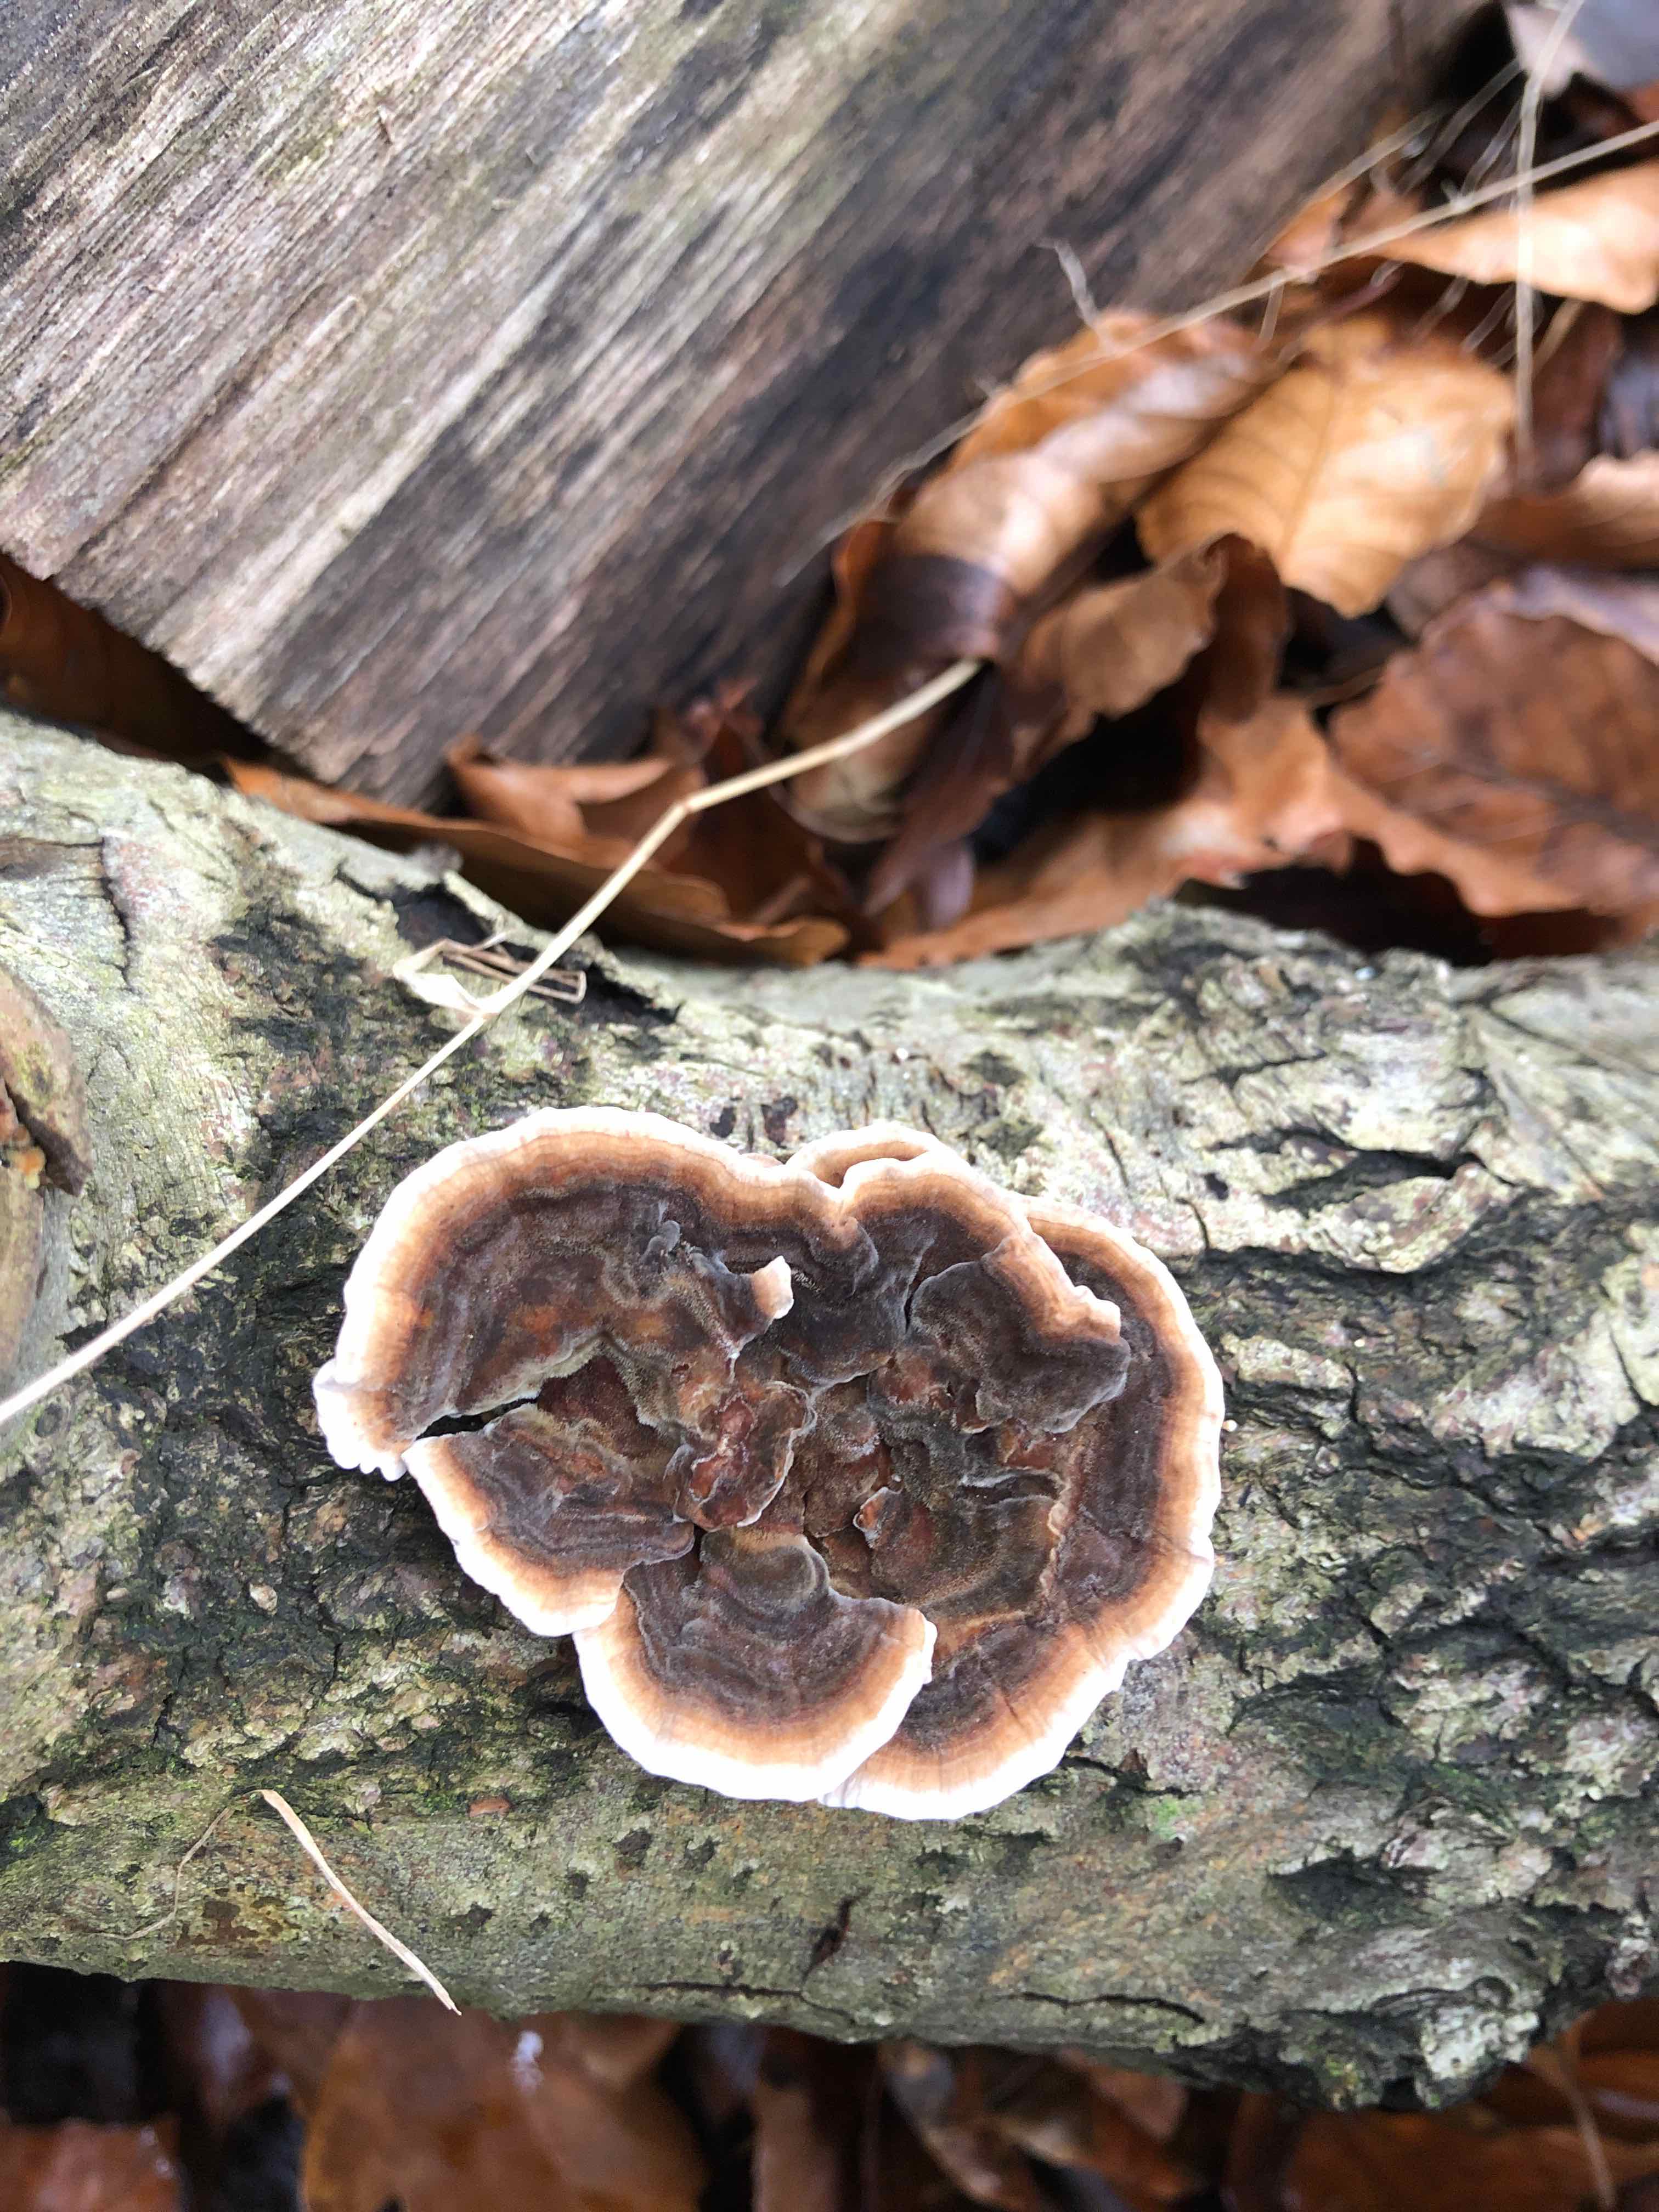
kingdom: Fungi
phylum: Basidiomycota
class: Agaricomycetes
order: Polyporales
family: Polyporaceae
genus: Trametes
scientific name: Trametes versicolor
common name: broget læderporesvamp
